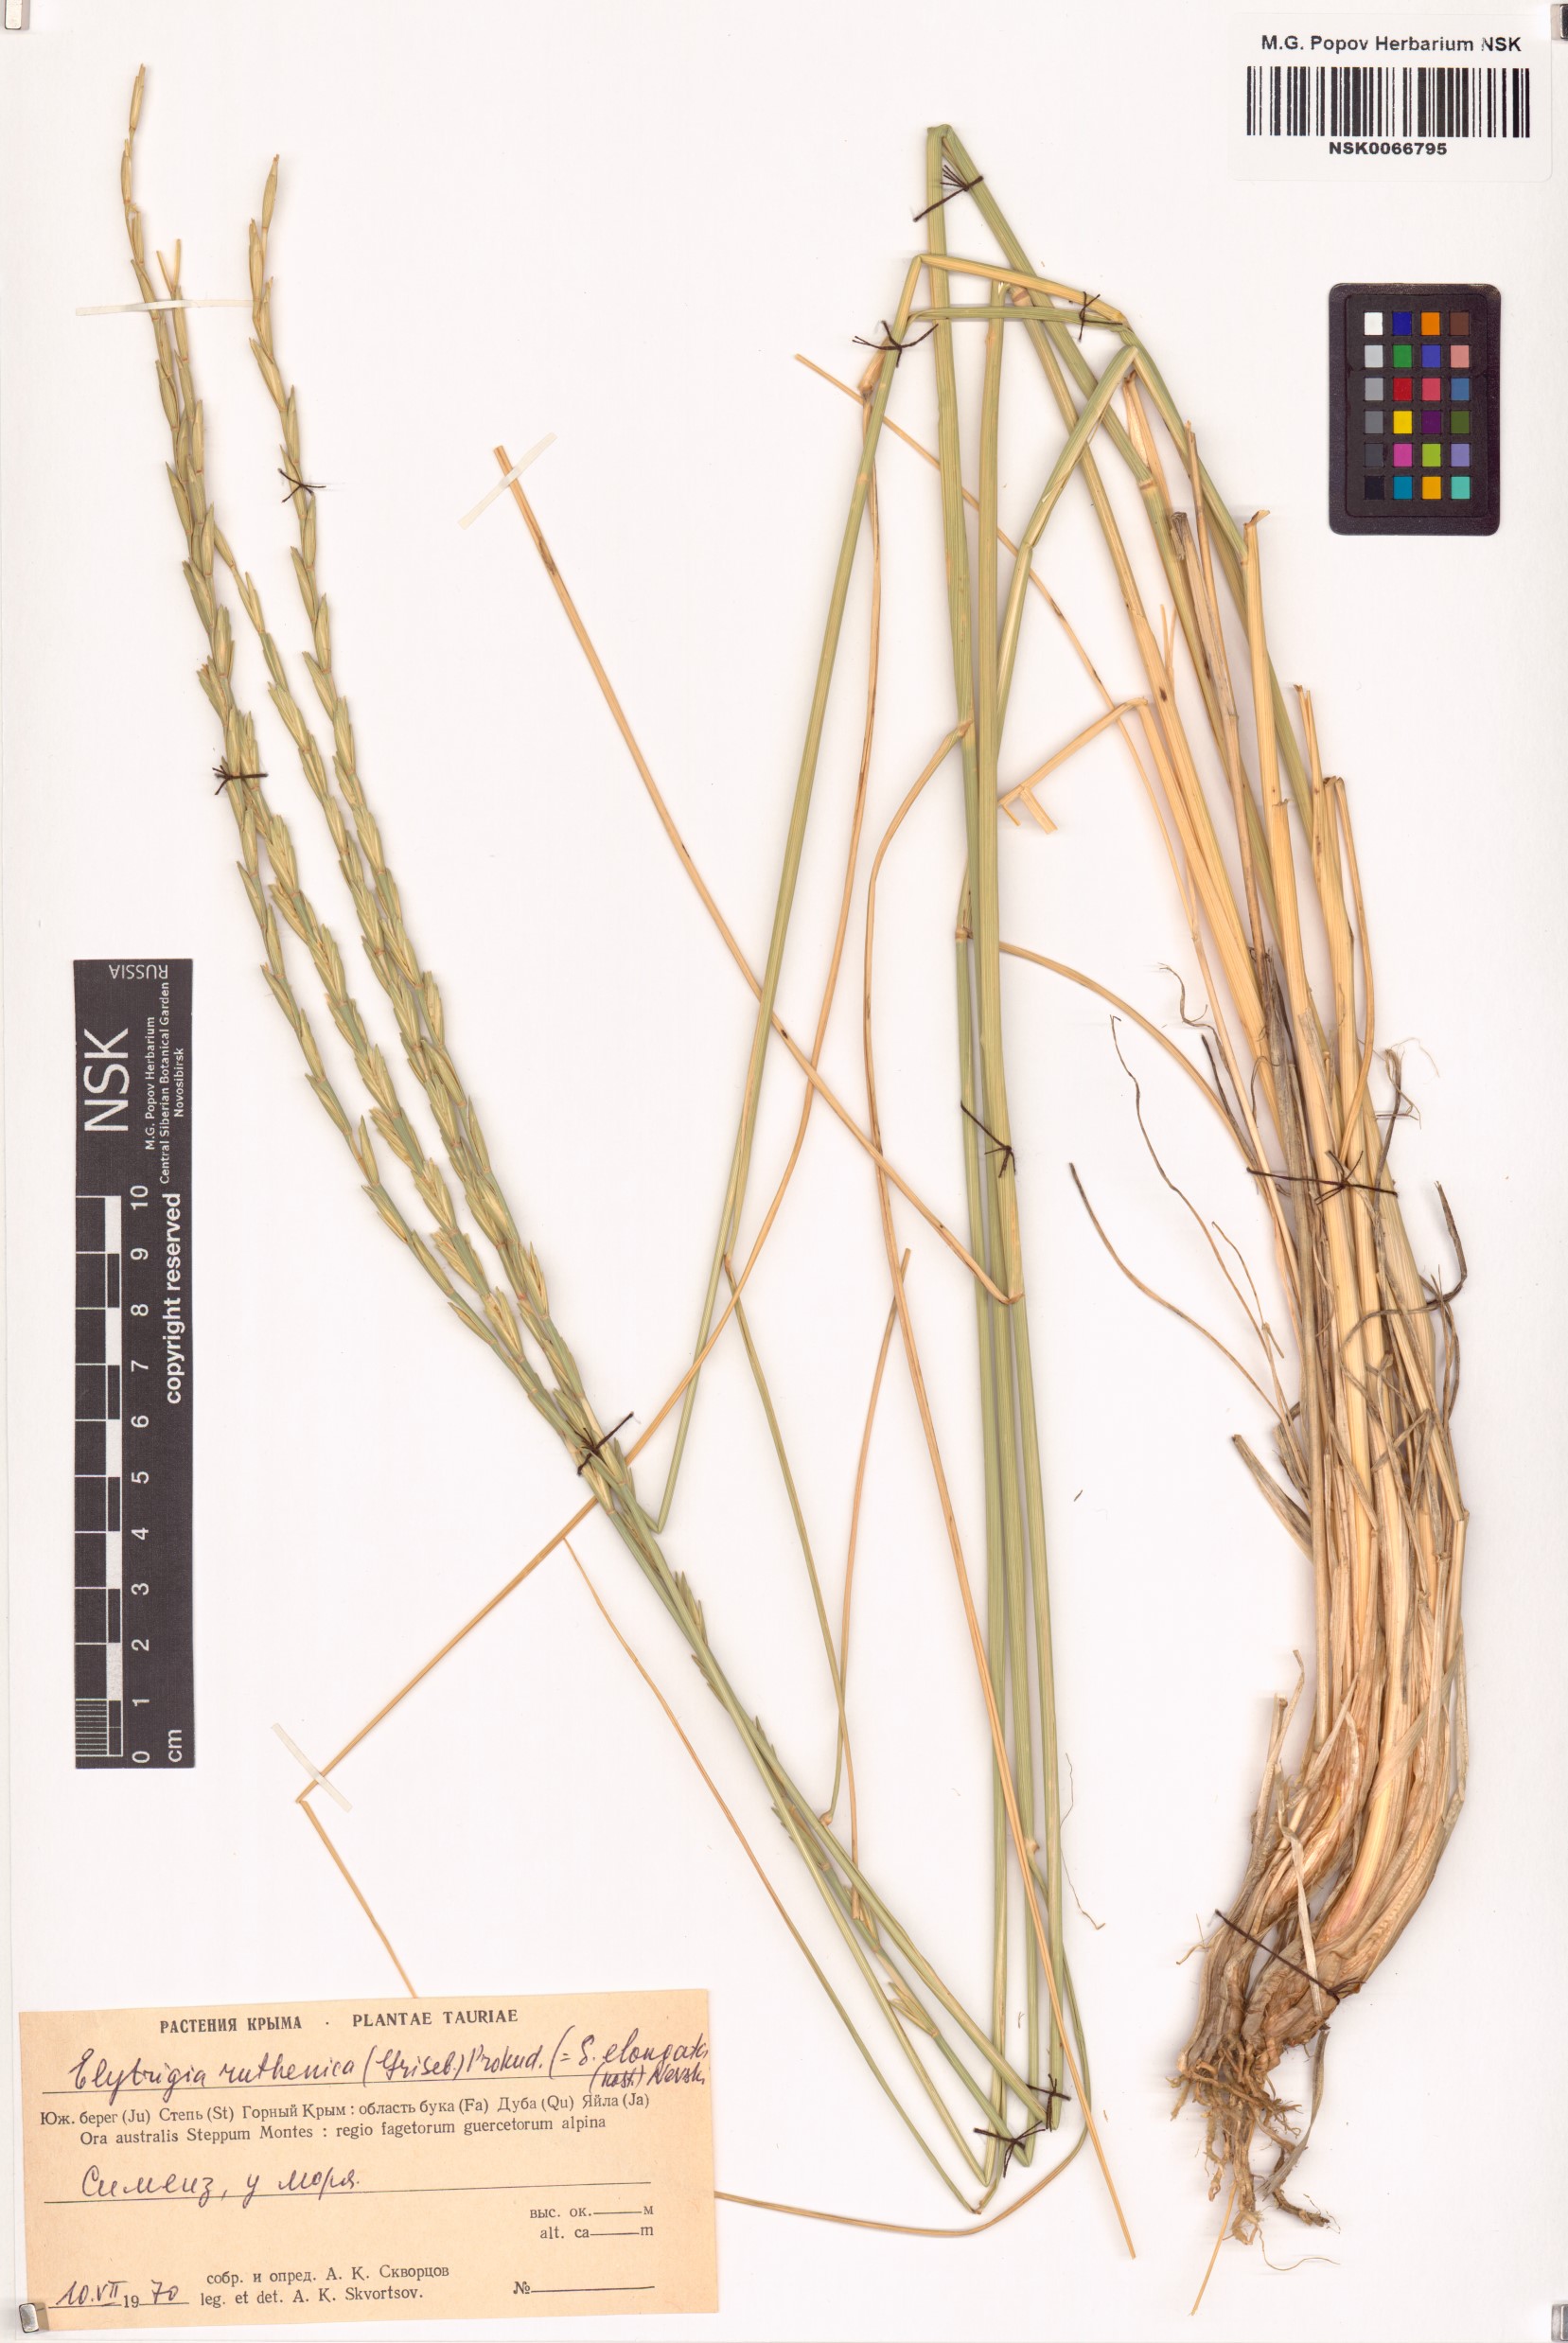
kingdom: Plantae
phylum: Tracheophyta
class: Liliopsida
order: Poales
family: Poaceae
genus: Thinopyrum
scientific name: Thinopyrum intermedium
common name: Intermediate wheatgrass
